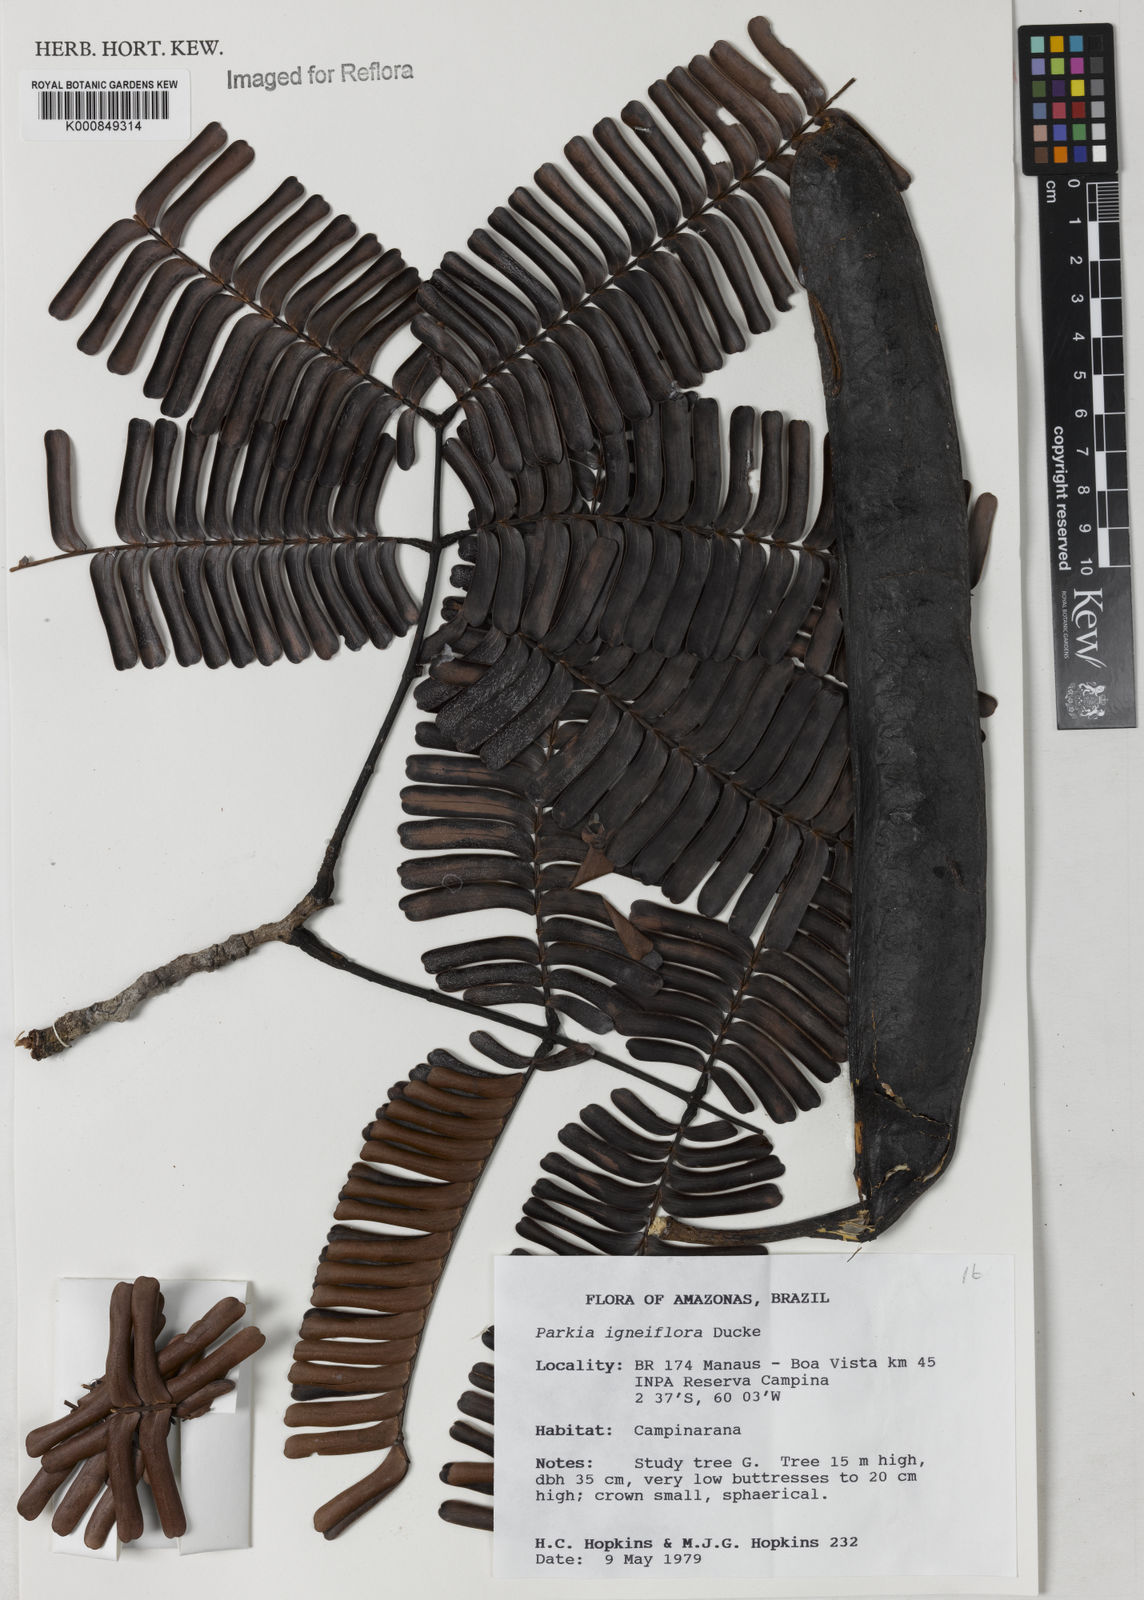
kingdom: Plantae
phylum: Tracheophyta
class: Magnoliopsida
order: Fabales
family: Fabaceae
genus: Parkia
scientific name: Parkia igneiflora
